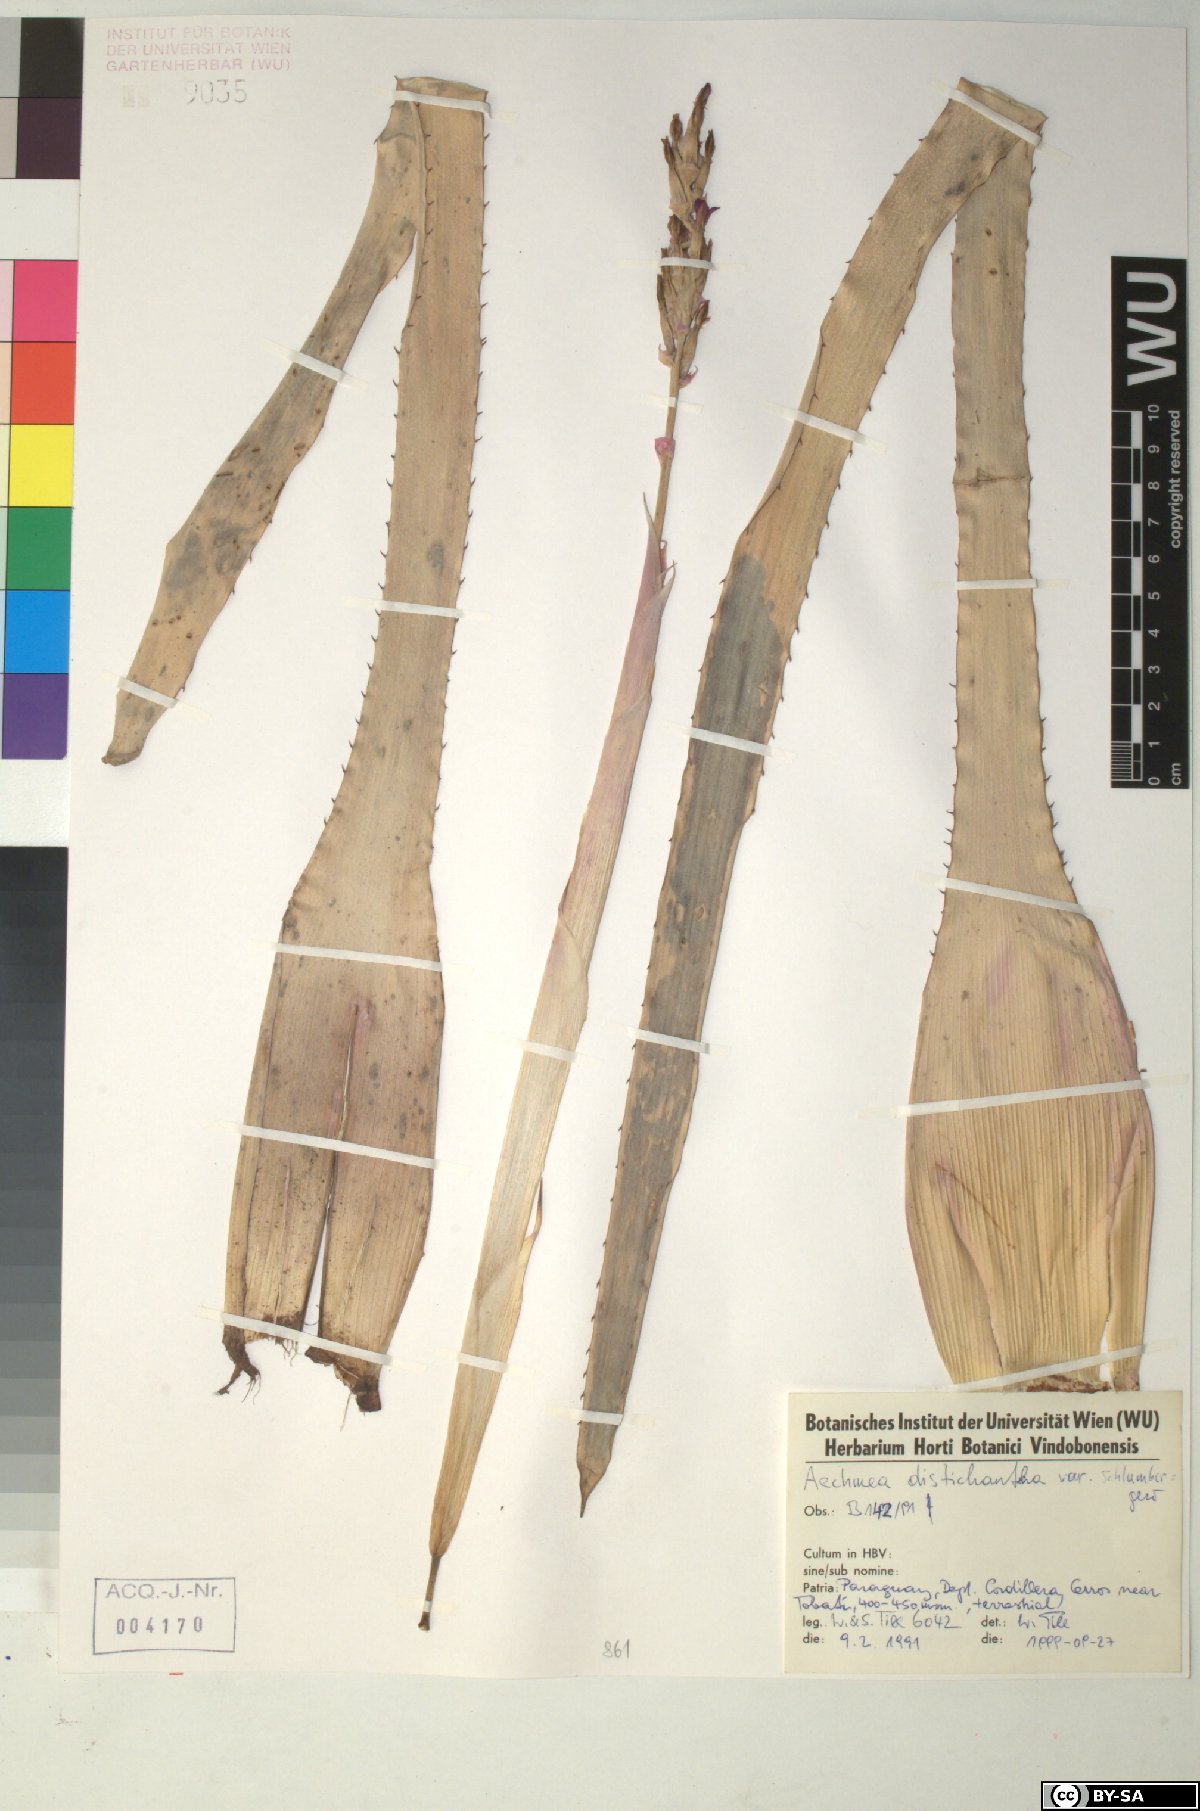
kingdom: Plantae
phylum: Tracheophyta
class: Liliopsida
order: Poales
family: Bromeliaceae
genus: Aechmea
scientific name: Aechmea distichantha
